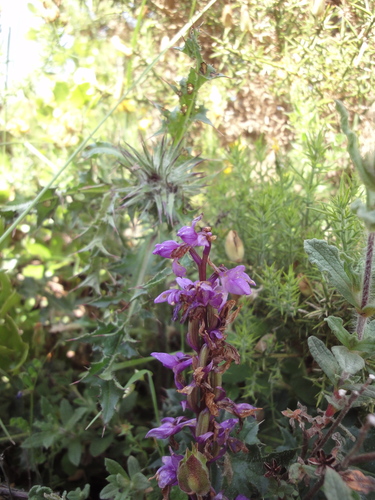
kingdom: Plantae
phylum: Tracheophyta
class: Liliopsida
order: Asparagales
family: Orchidaceae
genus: Orchis
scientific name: Orchis mascula
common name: Early-purple orchid
